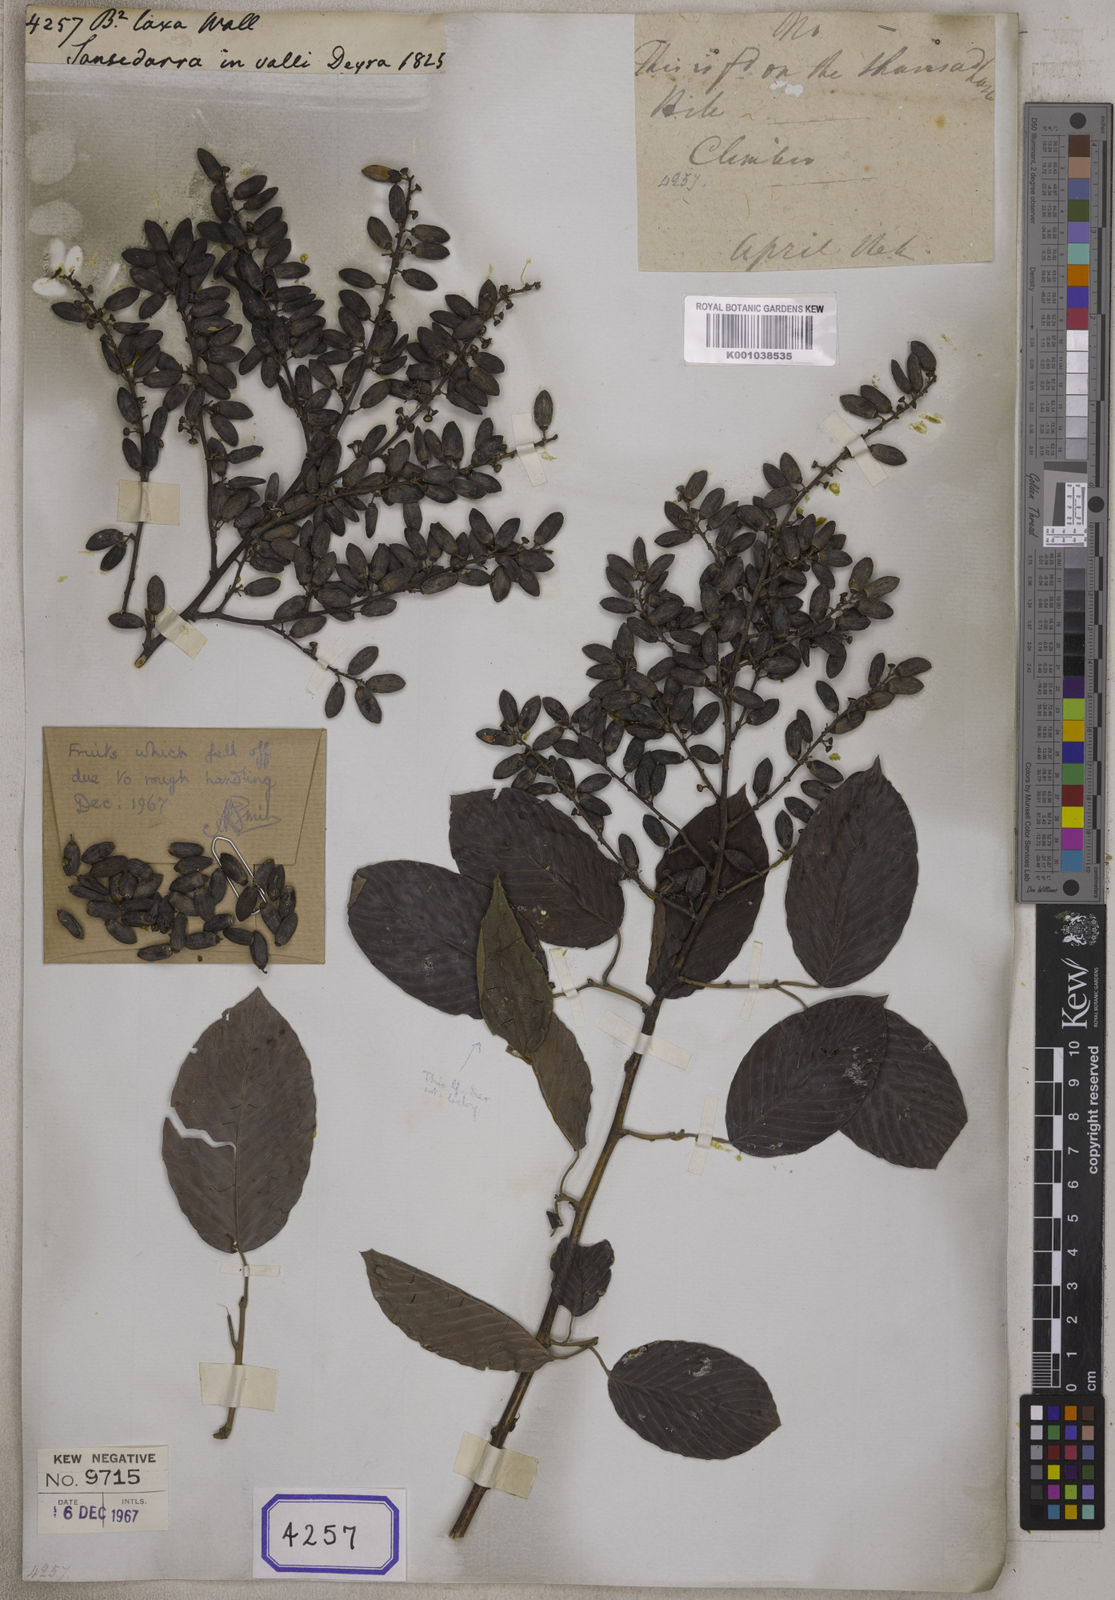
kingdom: Plantae
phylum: Tracheophyta
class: Magnoliopsida
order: Rosales
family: Rhamnaceae
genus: Berchemia
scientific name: Berchemia floribunda
